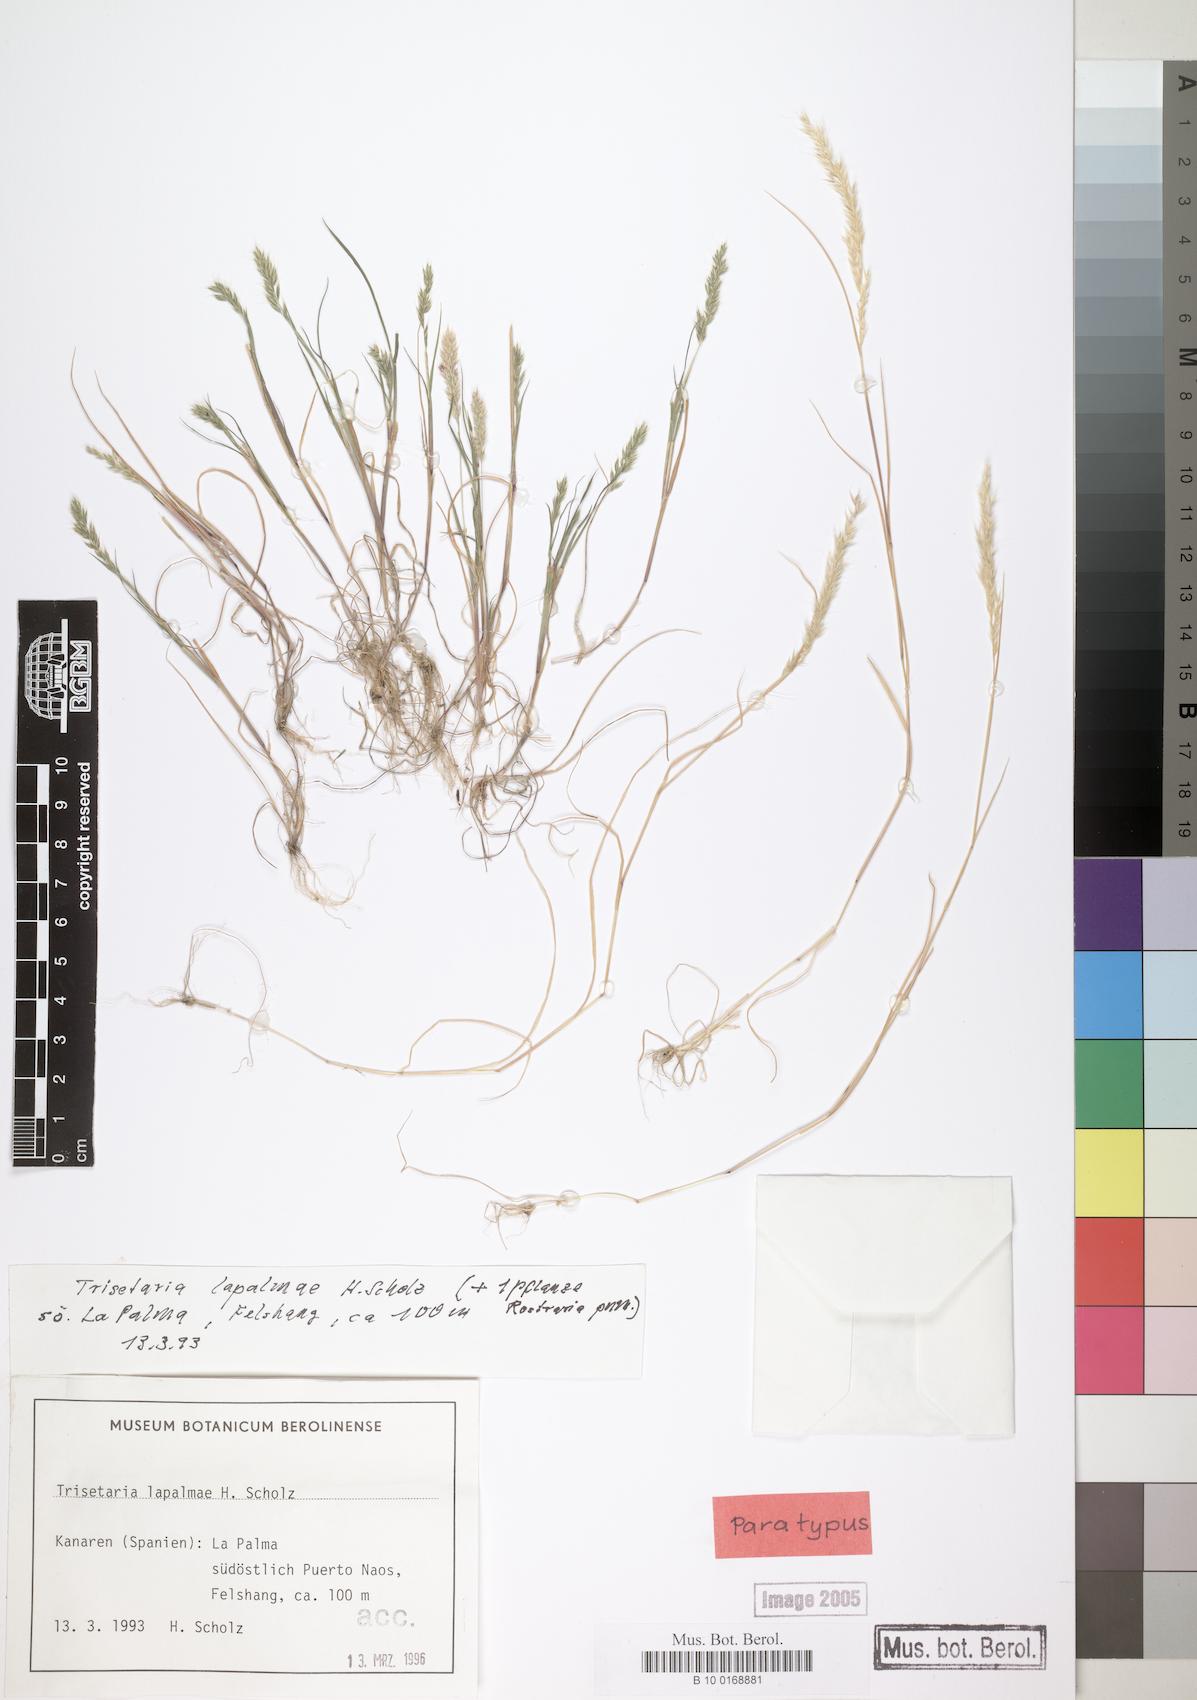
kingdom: Plantae
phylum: Tracheophyta
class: Liliopsida
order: Poales
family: Poaceae
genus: Trisetaria
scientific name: Trisetaria loeflingiana
